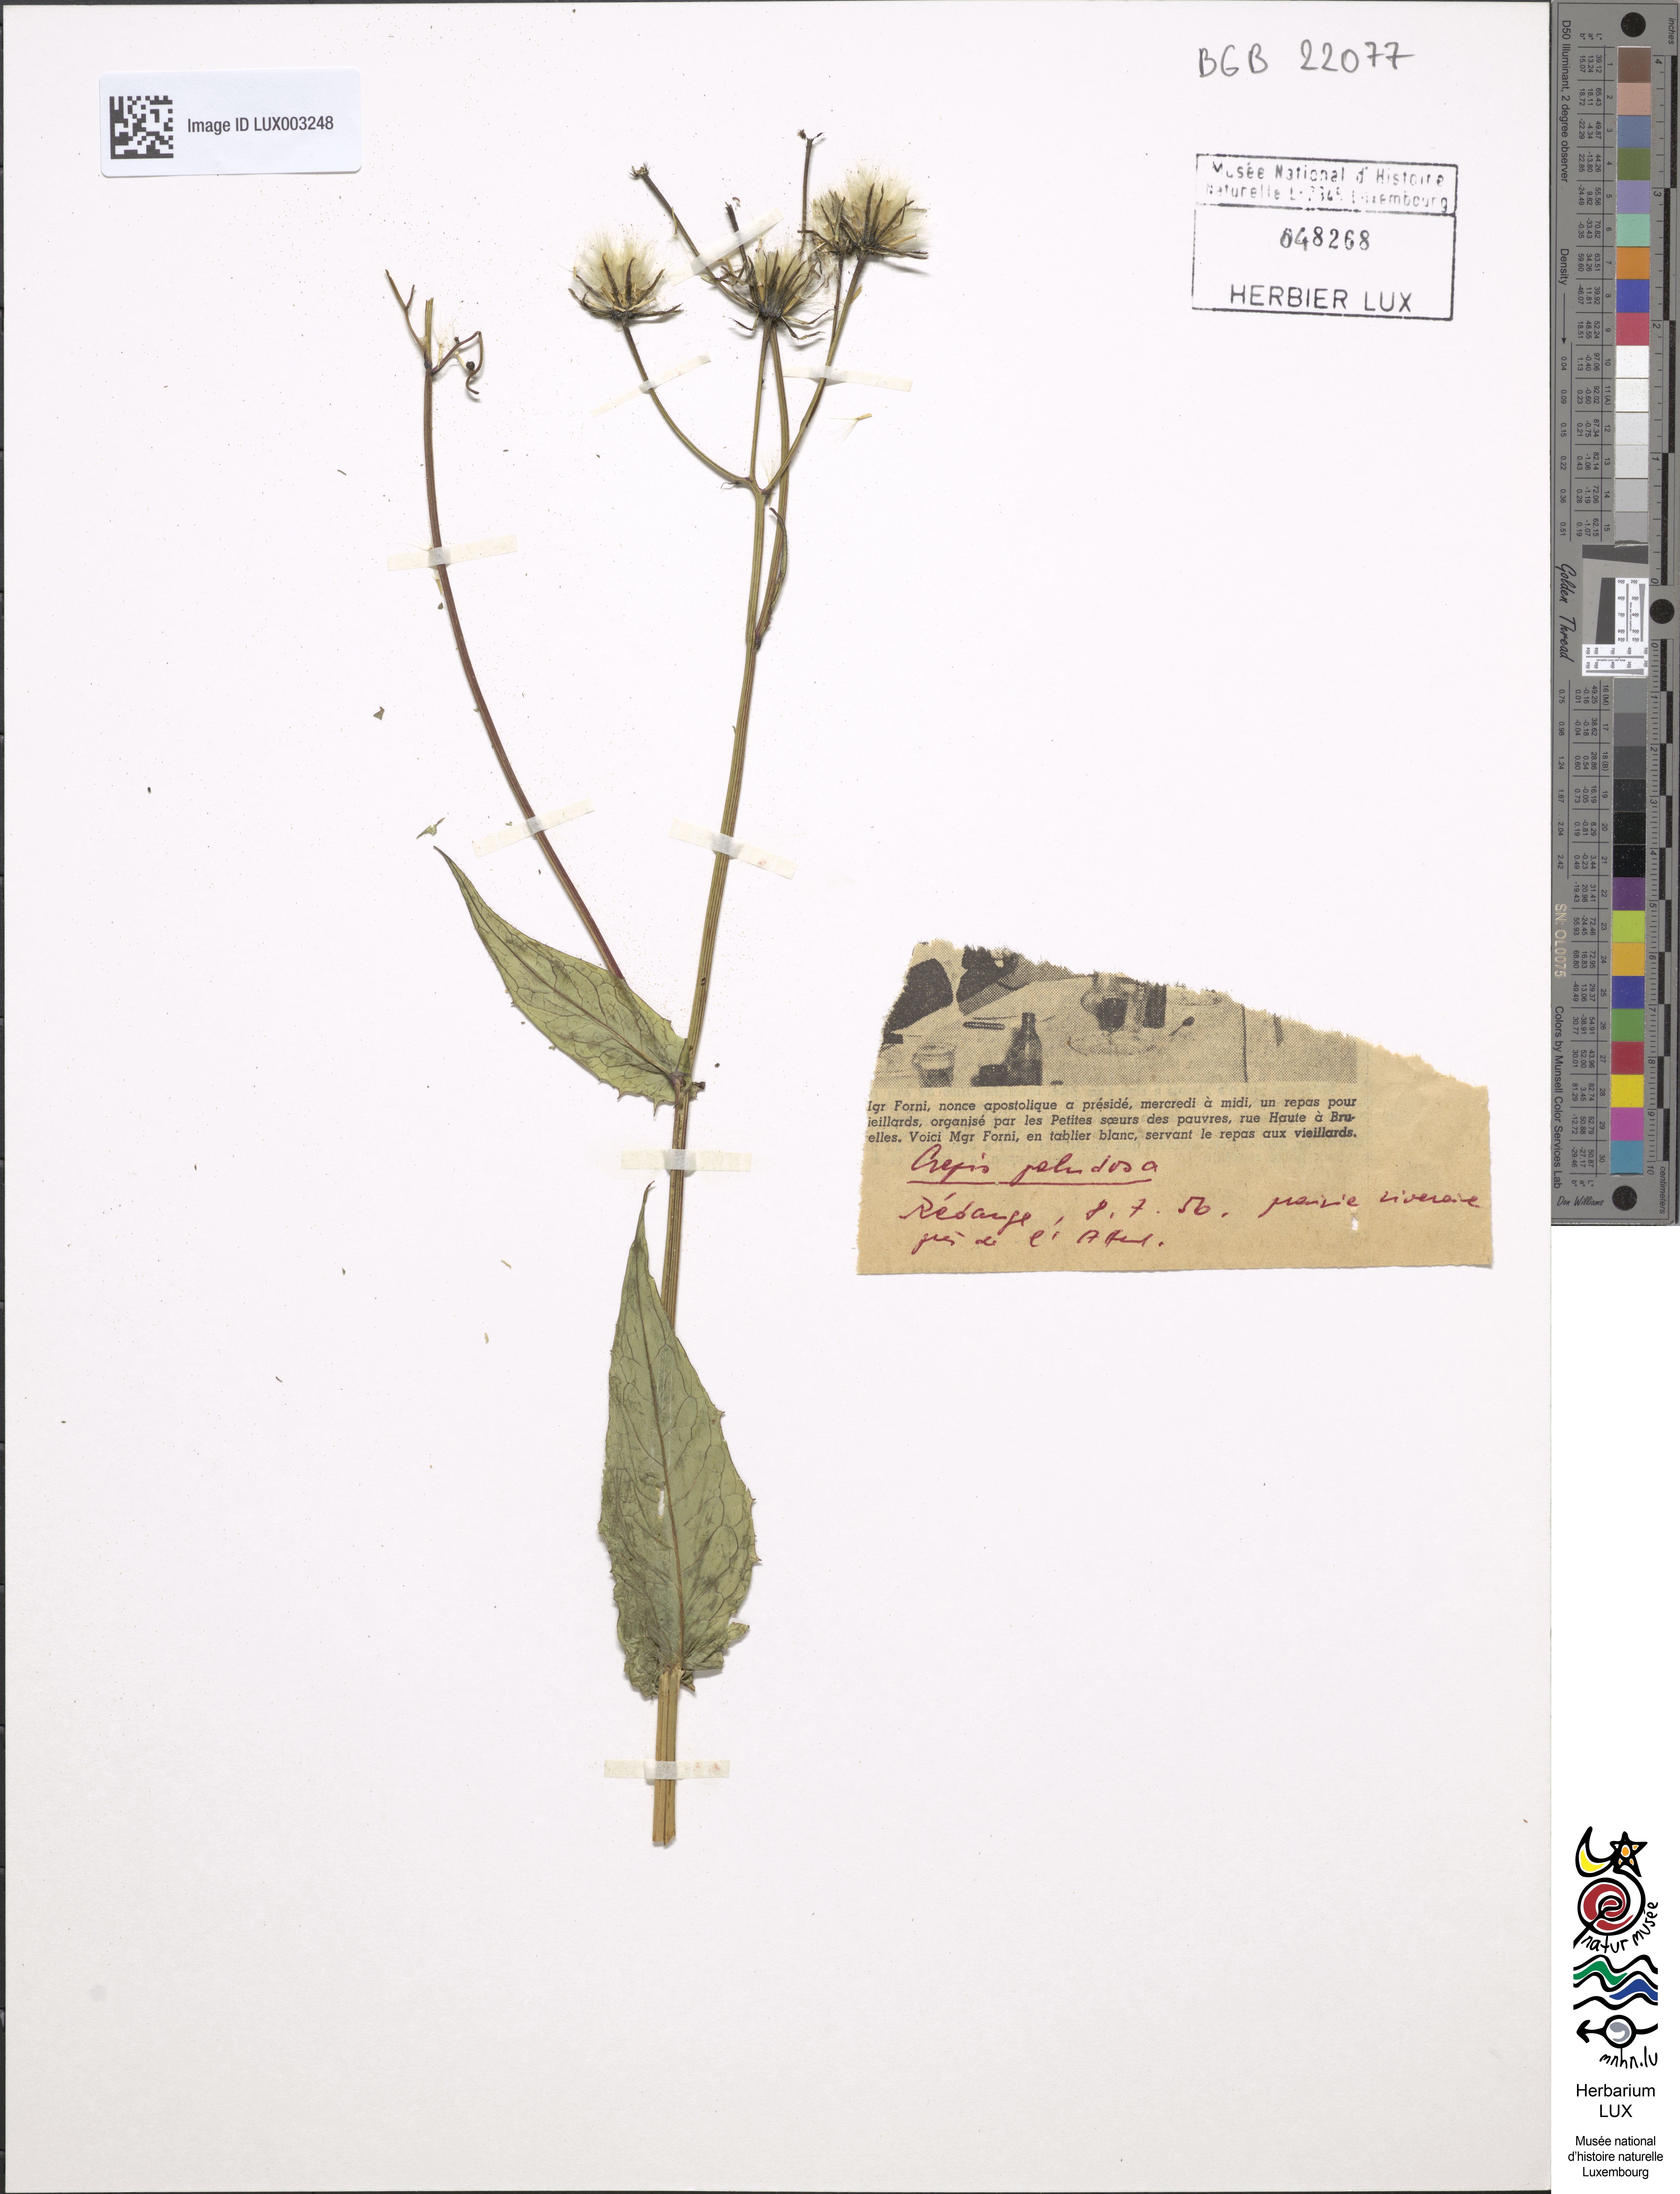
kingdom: Plantae
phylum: Tracheophyta
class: Magnoliopsida
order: Asterales
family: Asteraceae
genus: Crepis
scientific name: Crepis paludosa
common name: Marsh hawk's-beard
